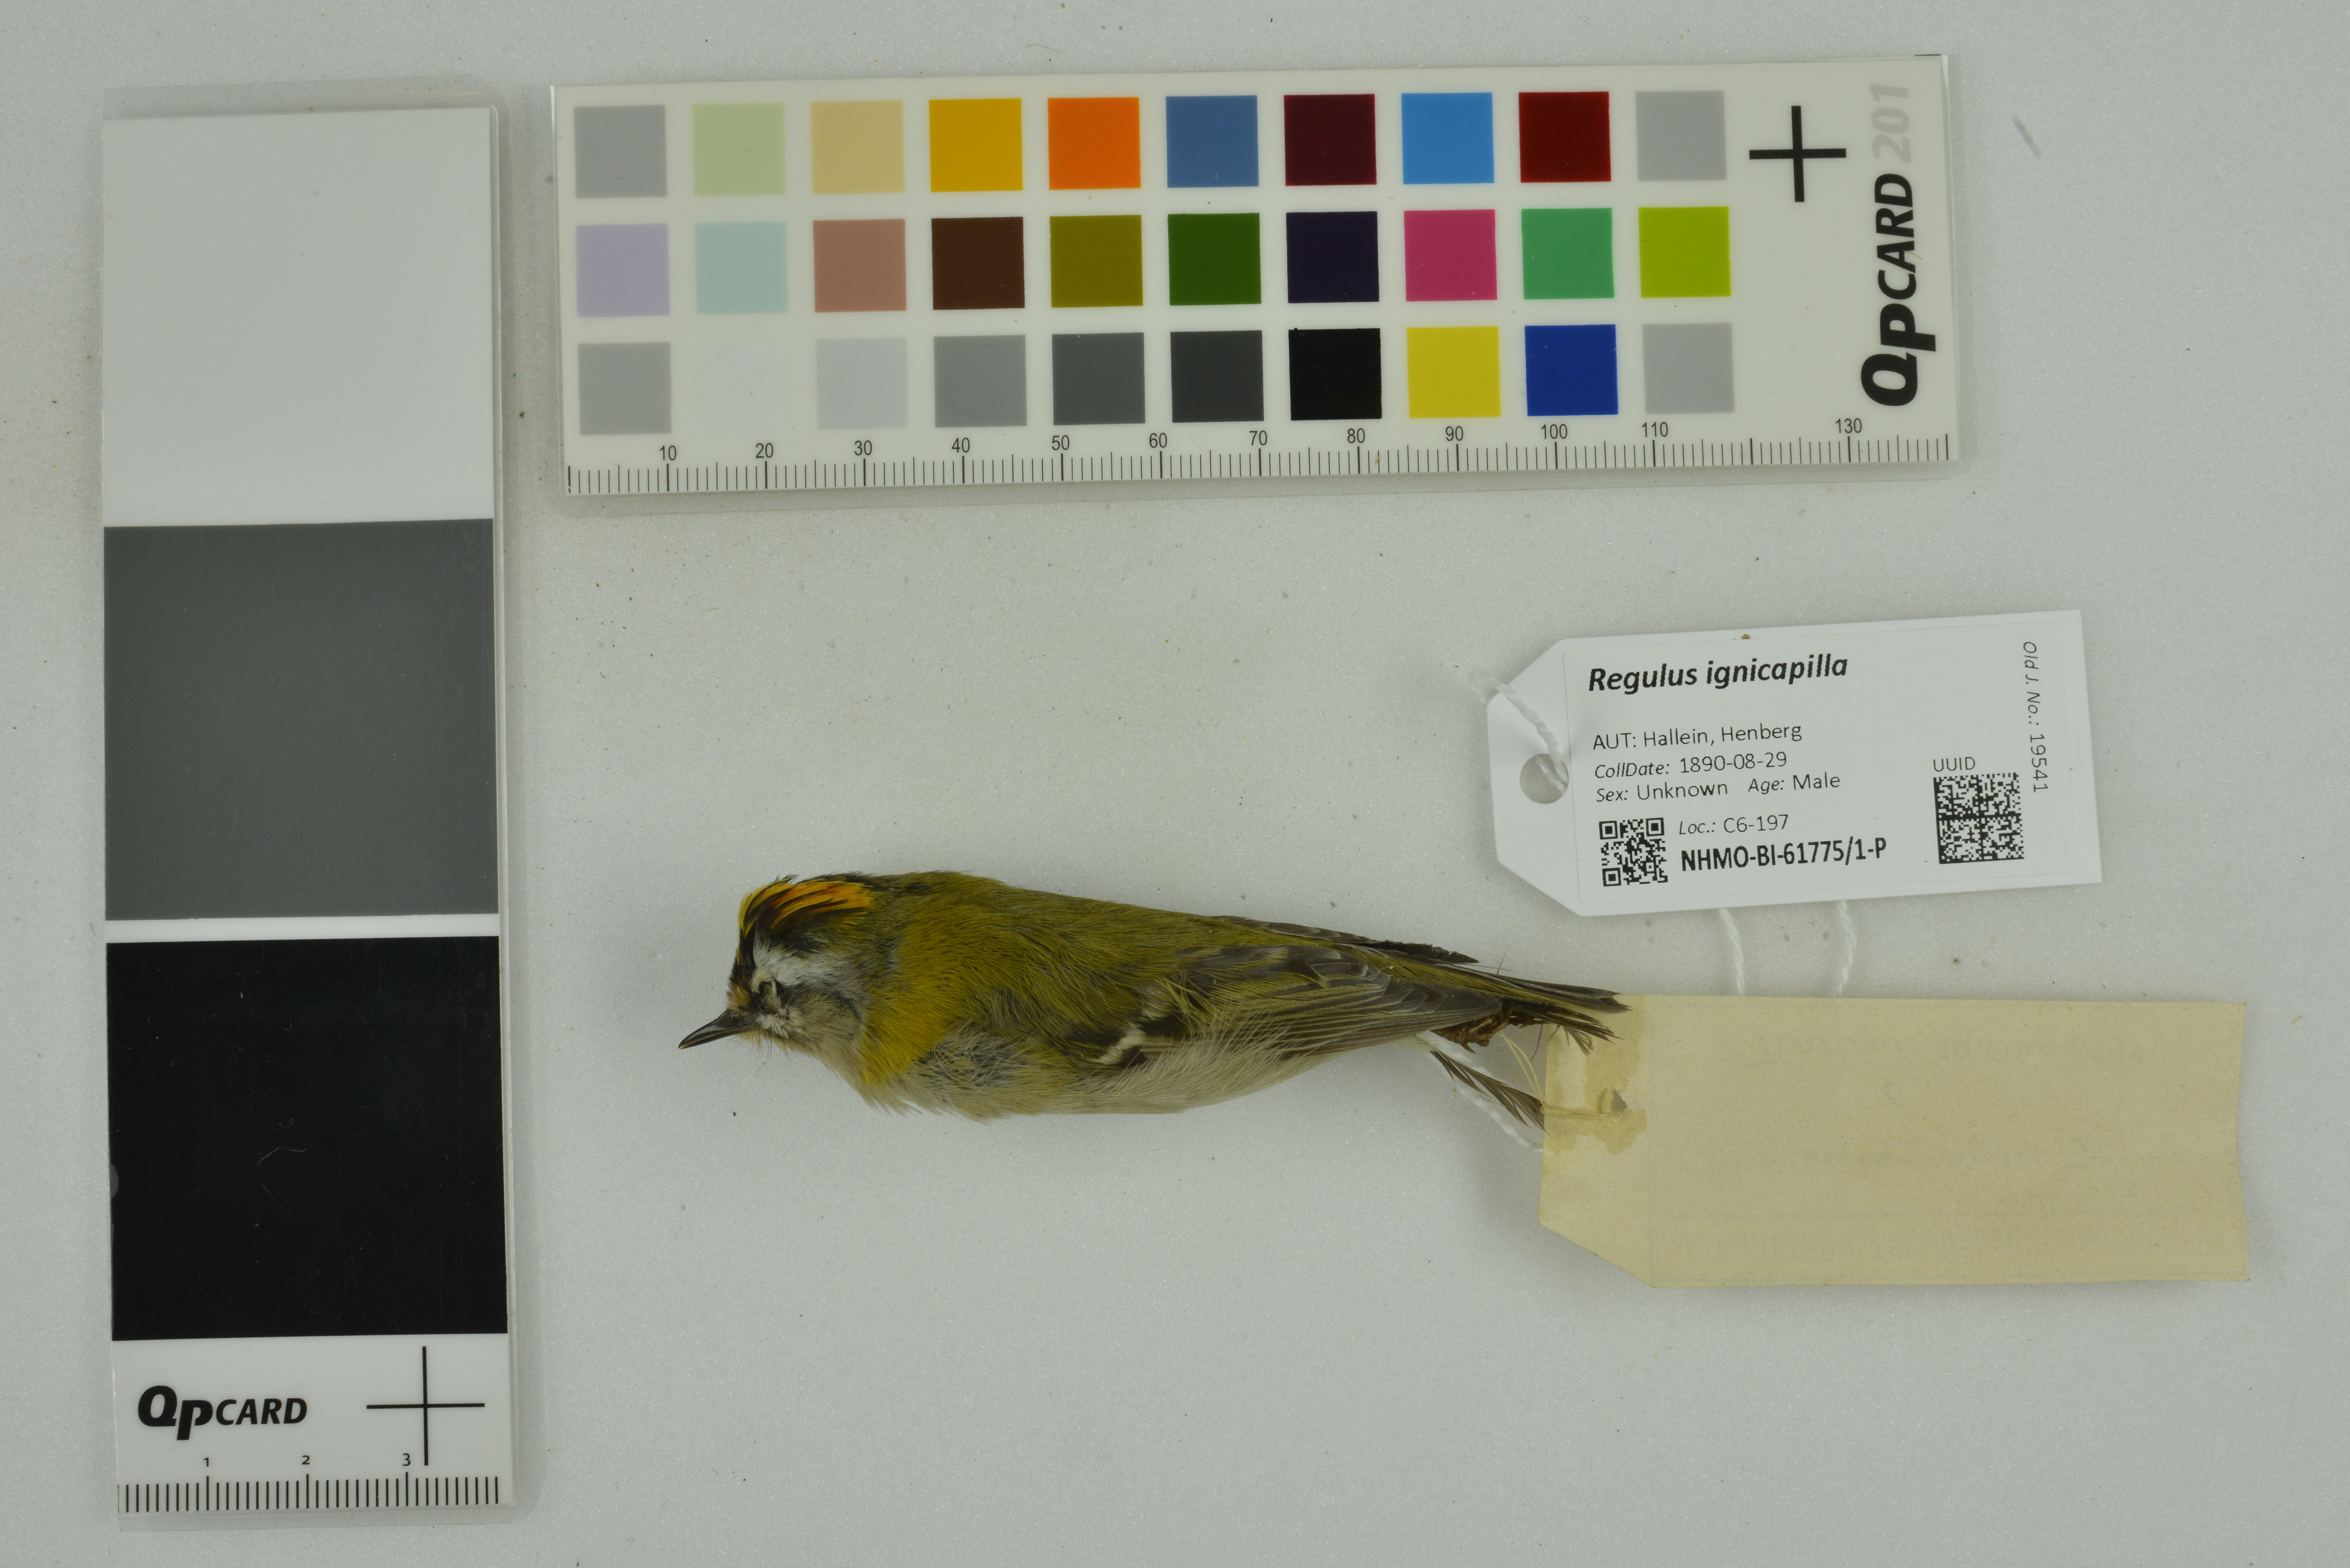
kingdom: Animalia
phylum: Chordata
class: Aves
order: Passeriformes
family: Regulidae
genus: Regulus
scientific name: Regulus ignicapilla
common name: Firecrest
